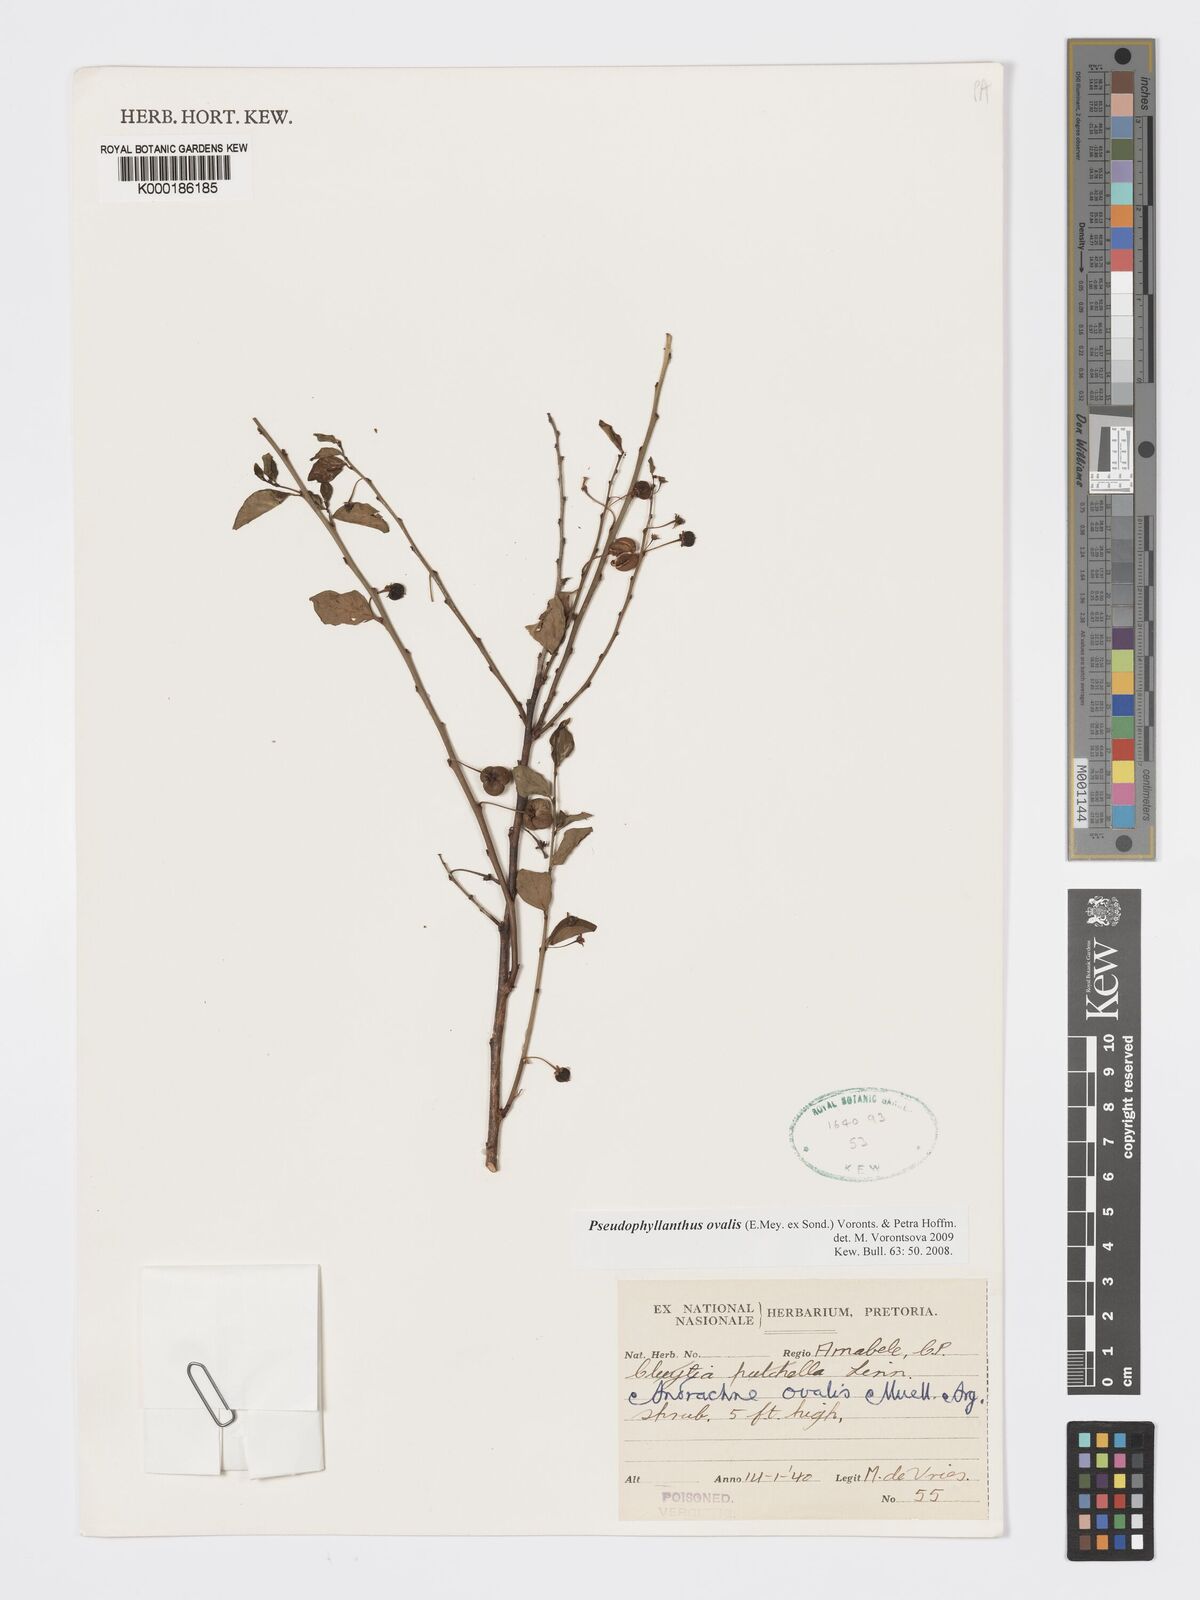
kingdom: Plantae
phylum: Tracheophyta
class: Magnoliopsida
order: Malpighiales
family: Phyllanthaceae
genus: Pseudophyllanthus
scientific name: Pseudophyllanthus ovalis
